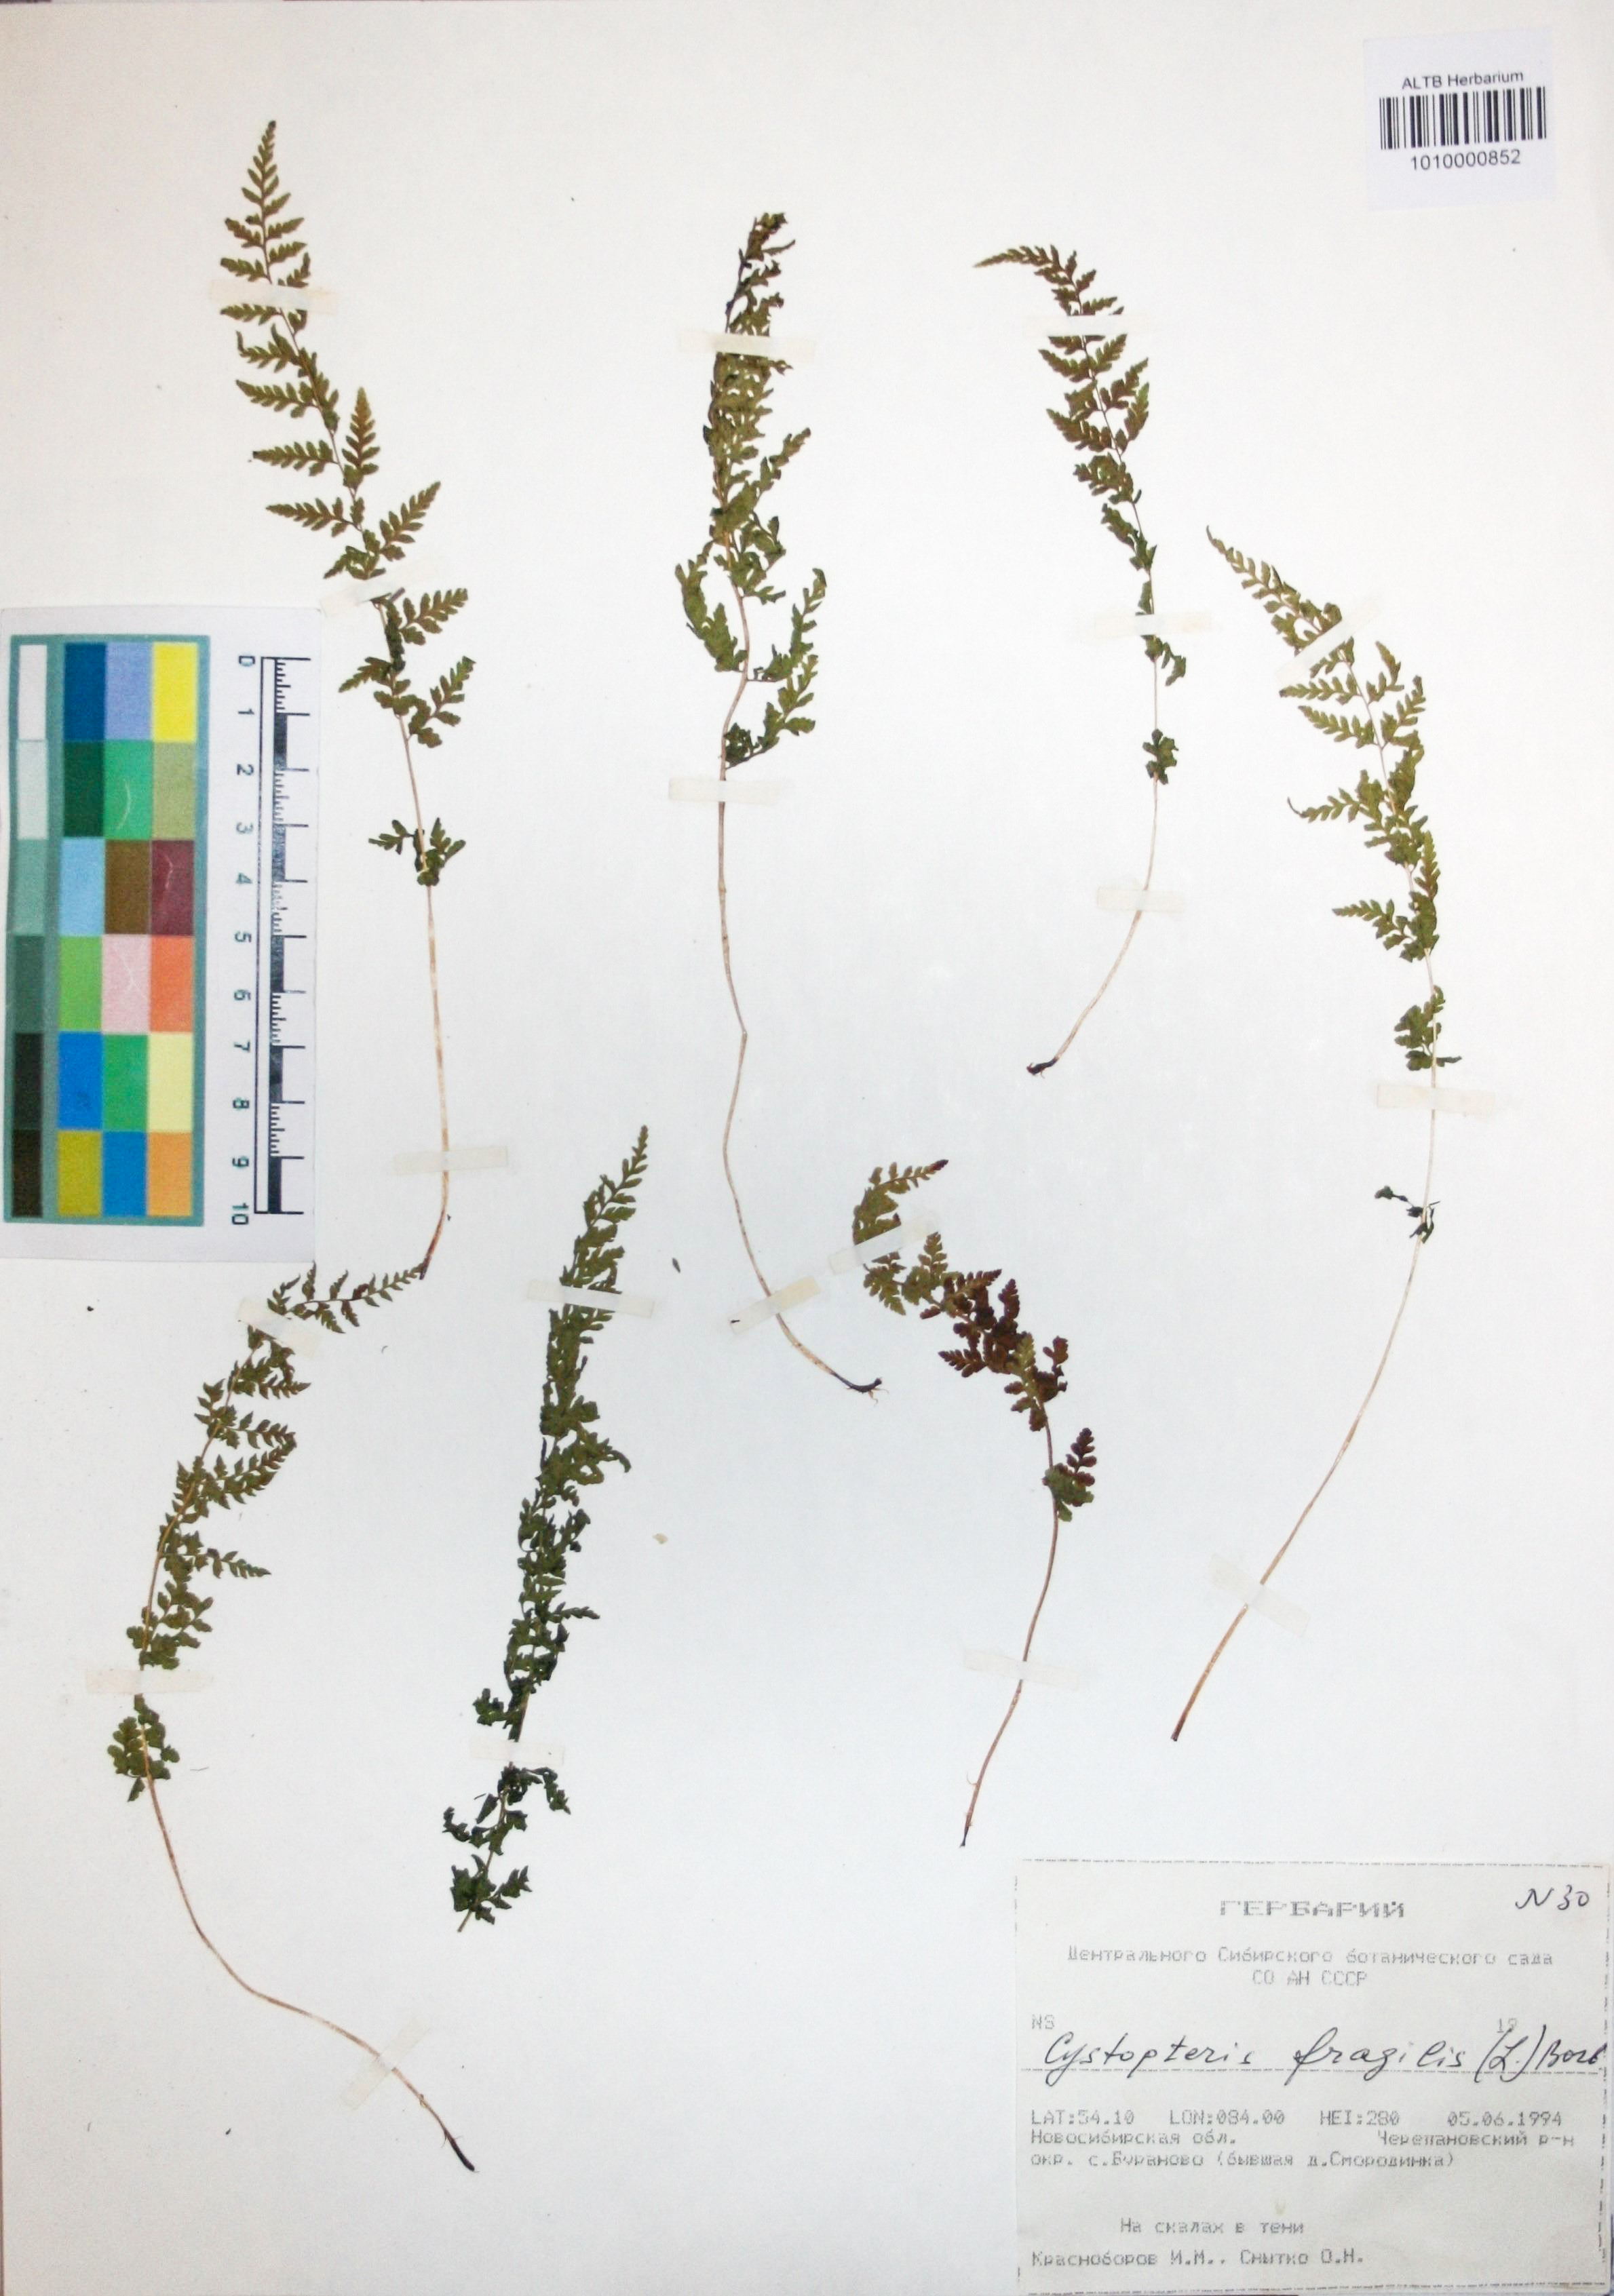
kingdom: Plantae
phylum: Tracheophyta
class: Polypodiopsida
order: Polypodiales
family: Cystopteridaceae
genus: Cystopteris
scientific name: Cystopteris fragilis
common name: Brittle bladder fern
